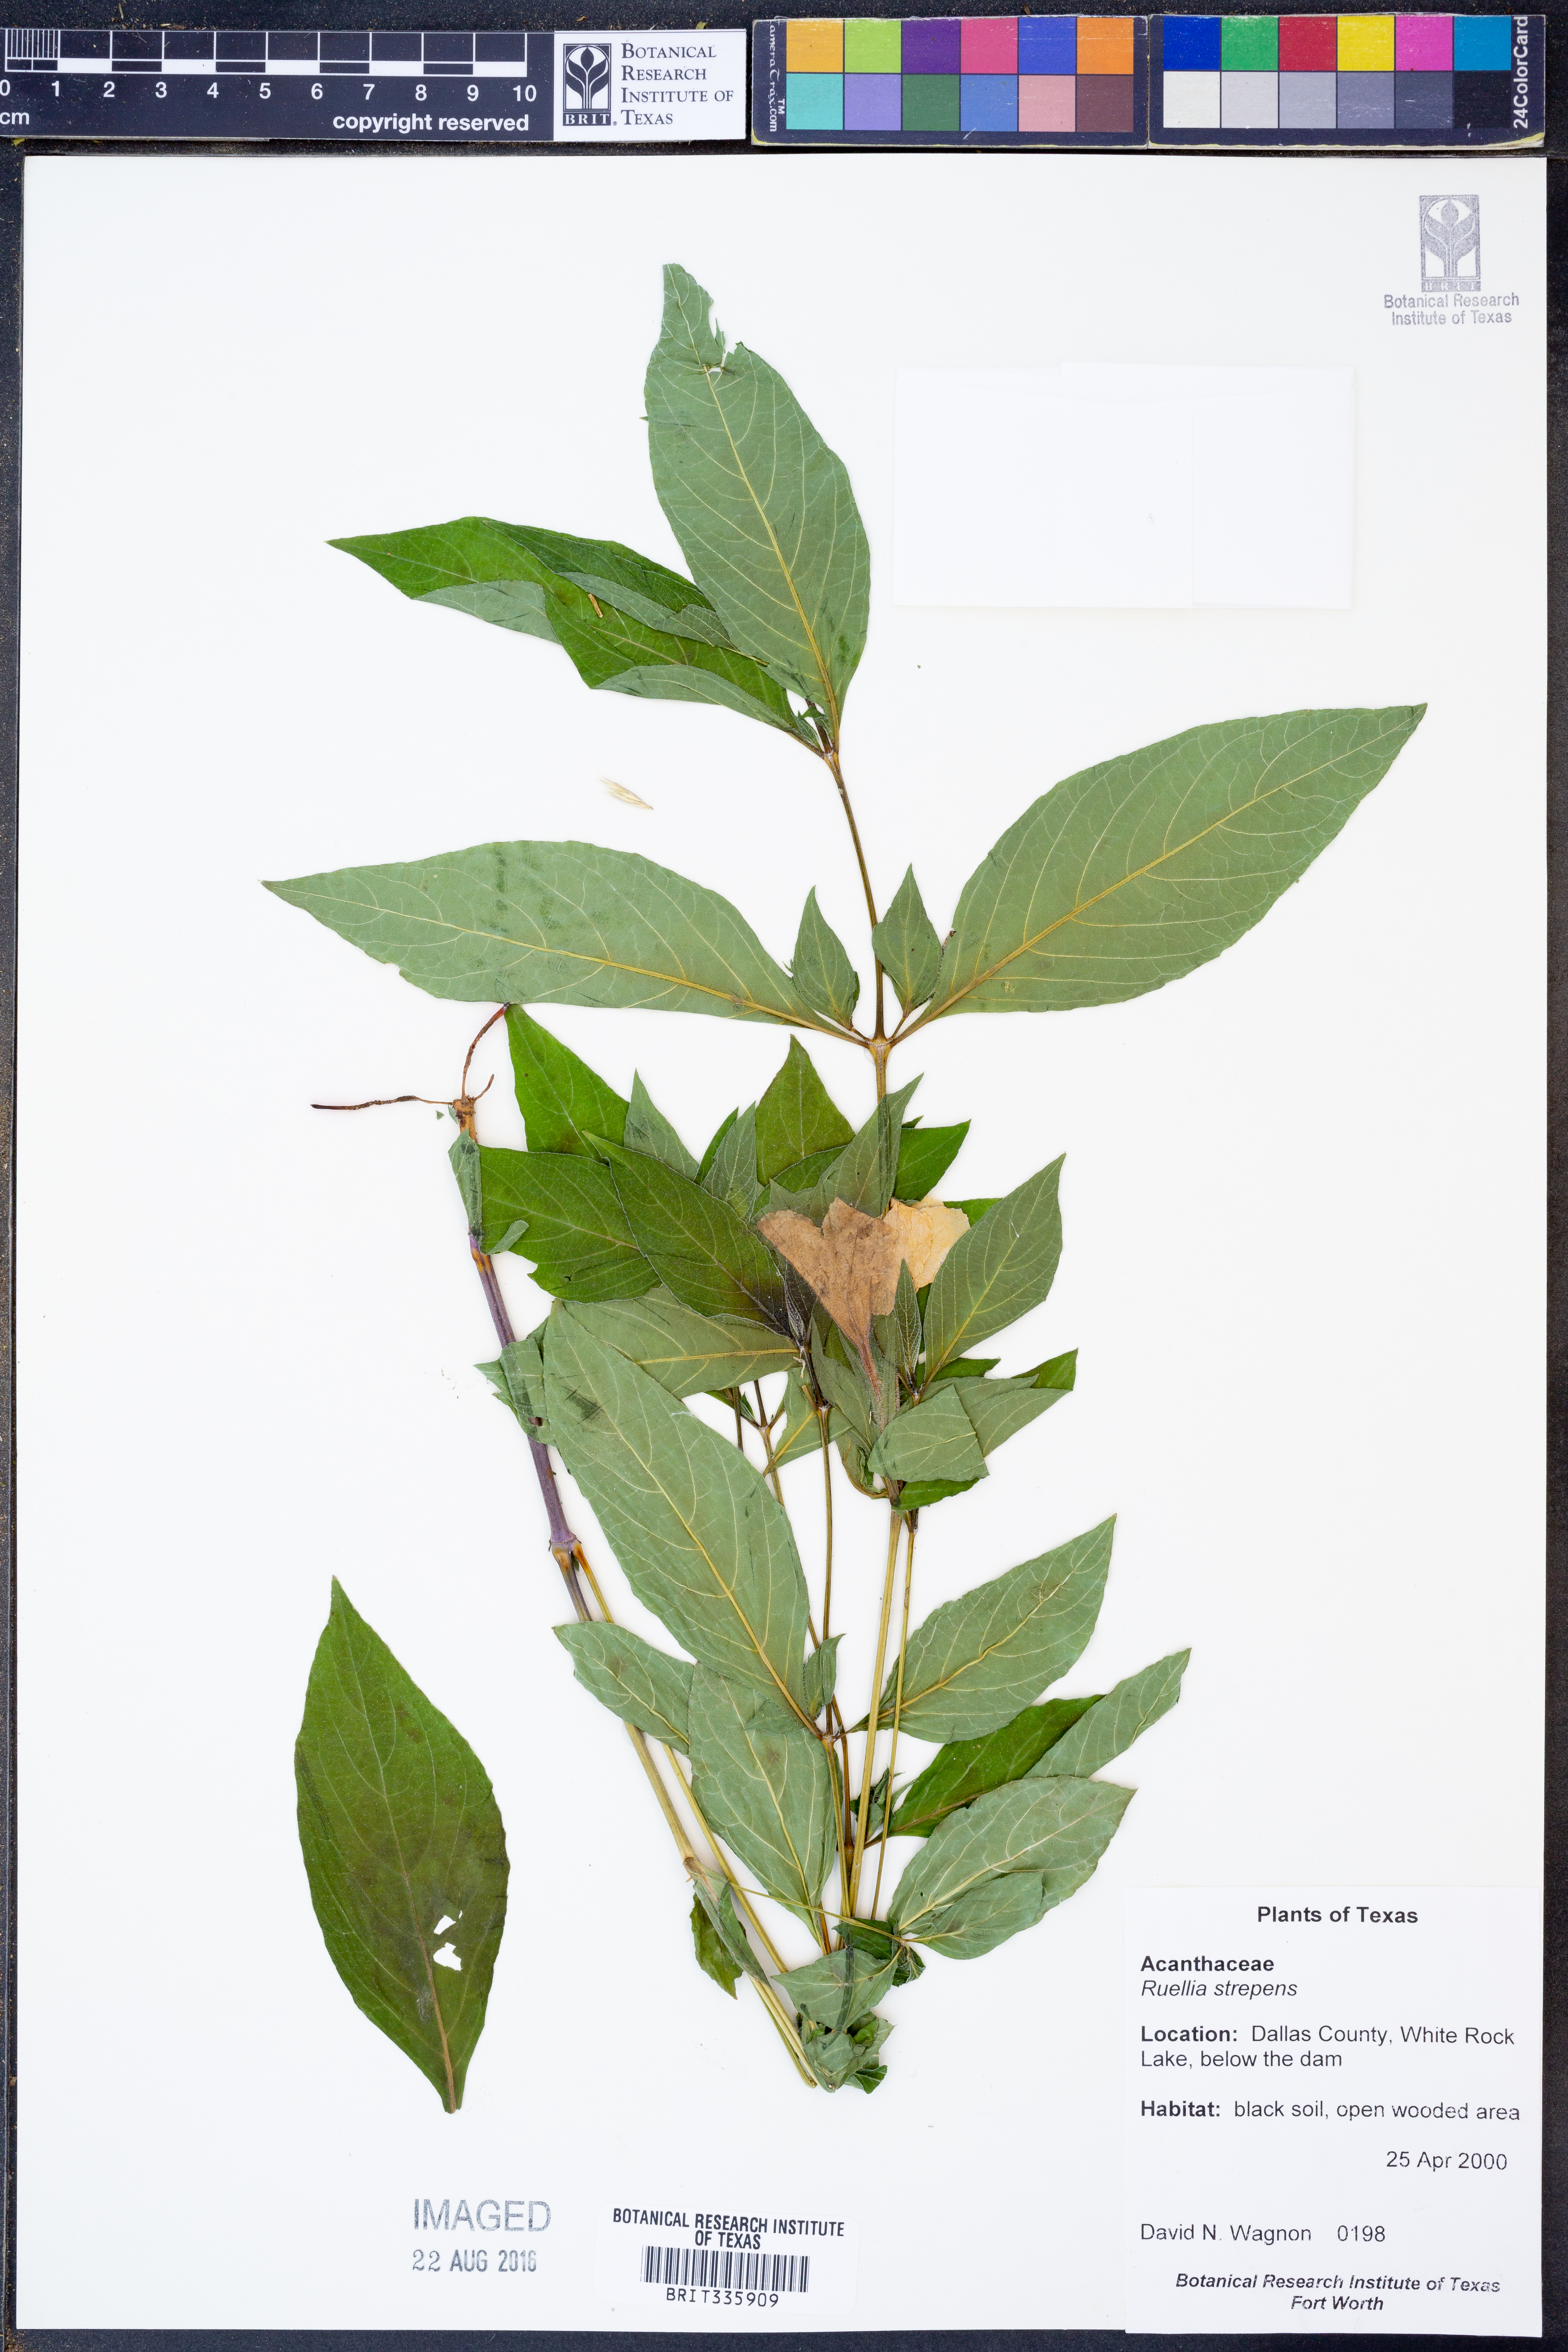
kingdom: Plantae
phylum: Tracheophyta
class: Magnoliopsida
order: Lamiales
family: Acanthaceae
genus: Ruellia
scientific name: Ruellia strepens
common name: Limestone wild petunia
